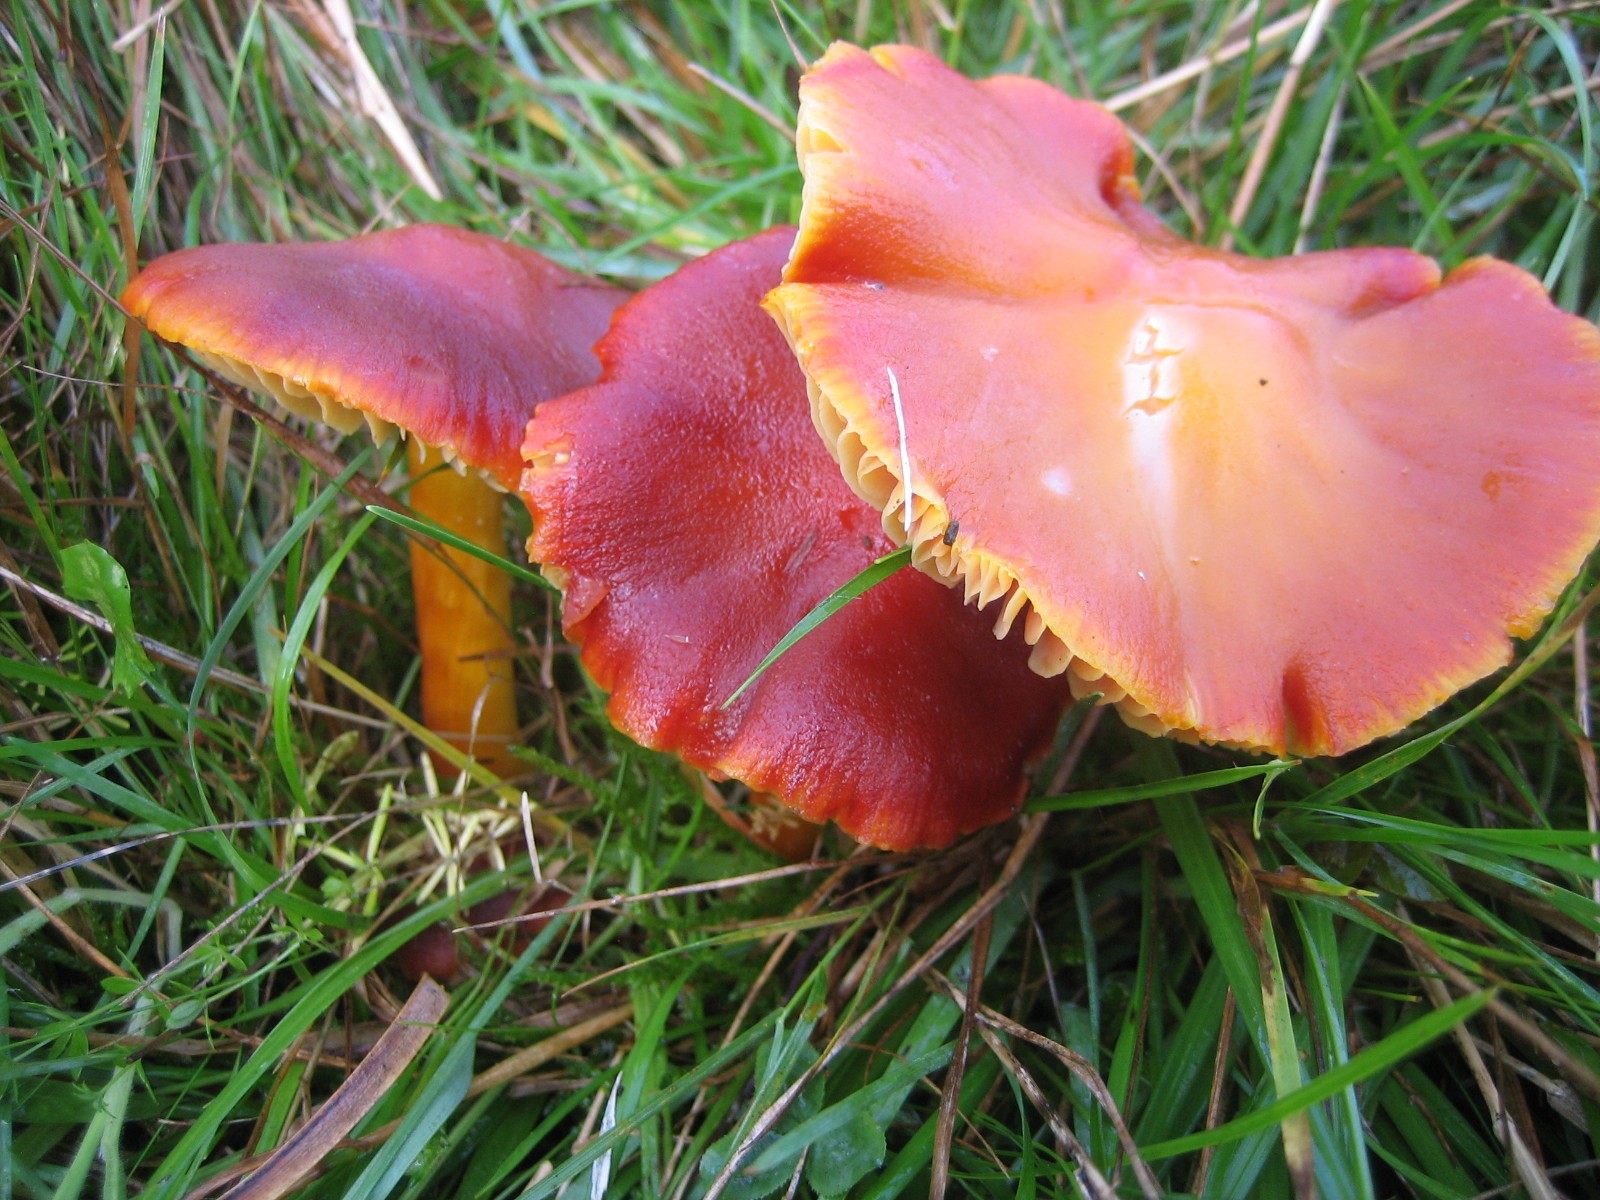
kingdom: Fungi
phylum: Basidiomycota
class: Agaricomycetes
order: Agaricales
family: Hygrophoraceae
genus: Hygrocybe
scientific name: Hygrocybe punicea
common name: skarlagen-vokshat
